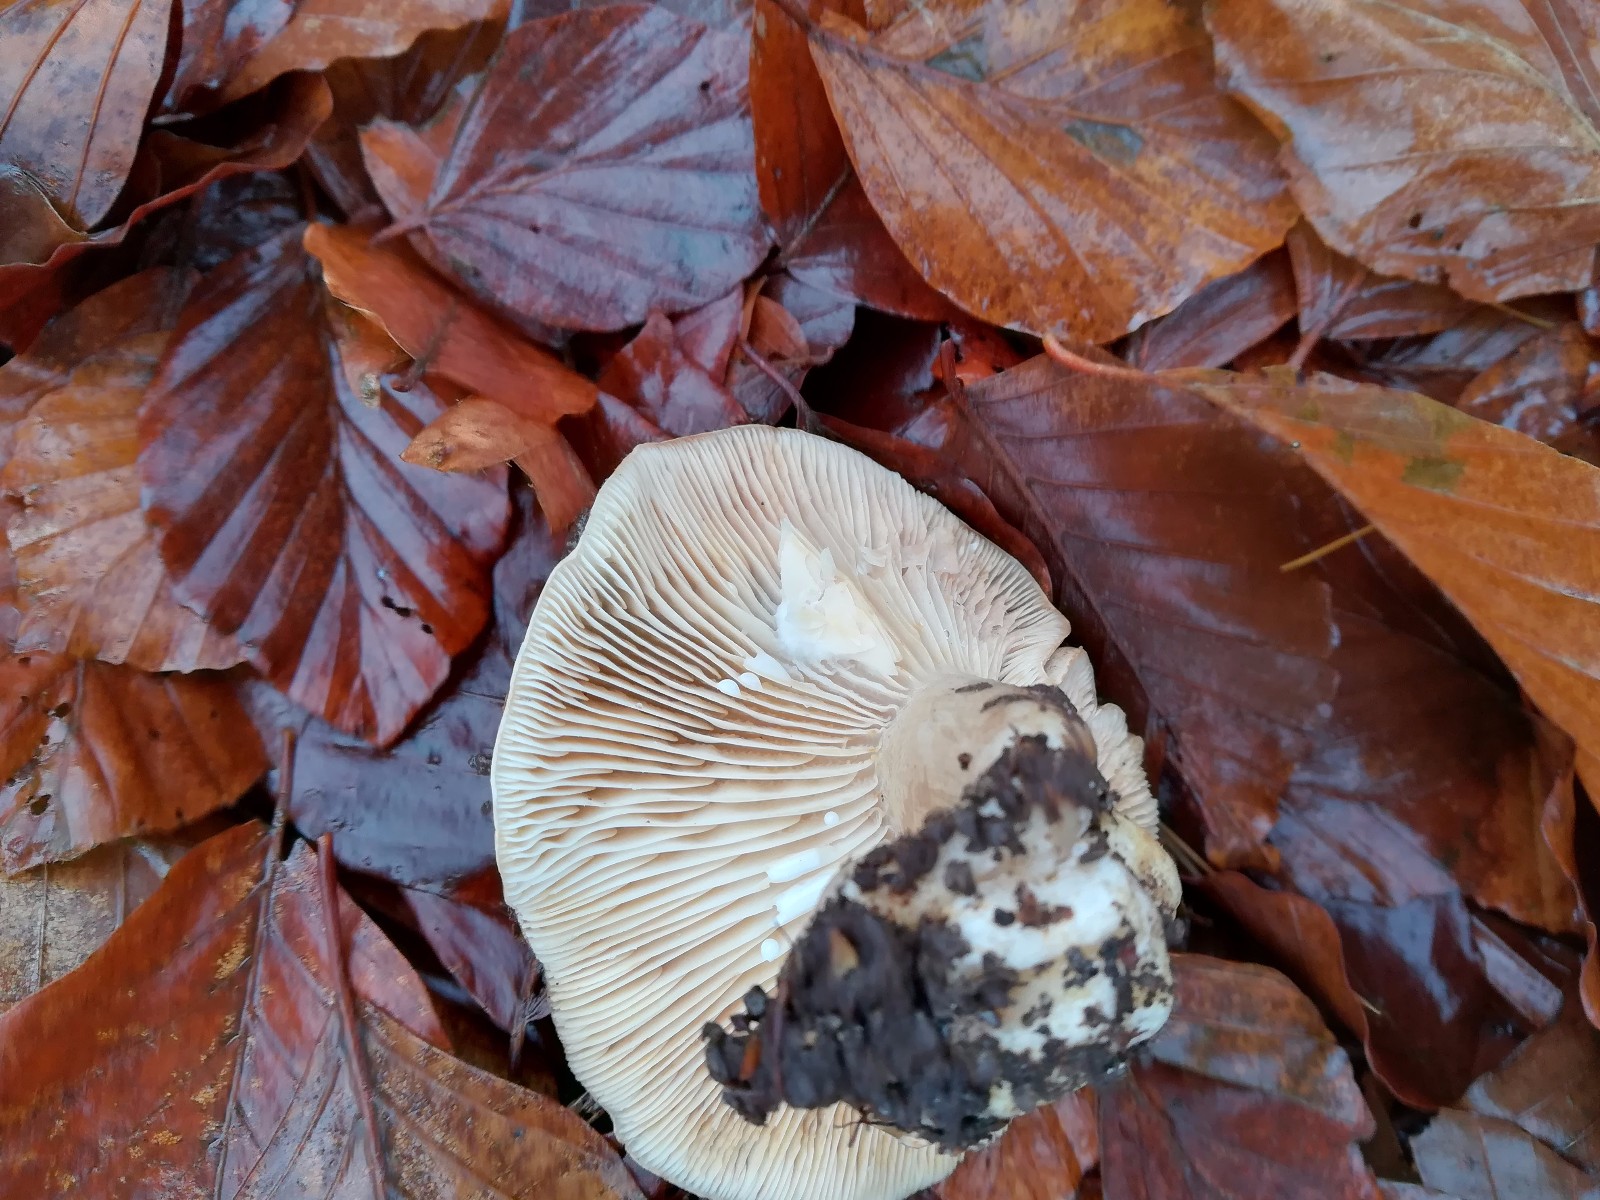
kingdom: Fungi
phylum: Basidiomycota
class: Agaricomycetes
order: Russulales
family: Russulaceae
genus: Lactarius
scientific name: Lactarius
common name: mælkehat
